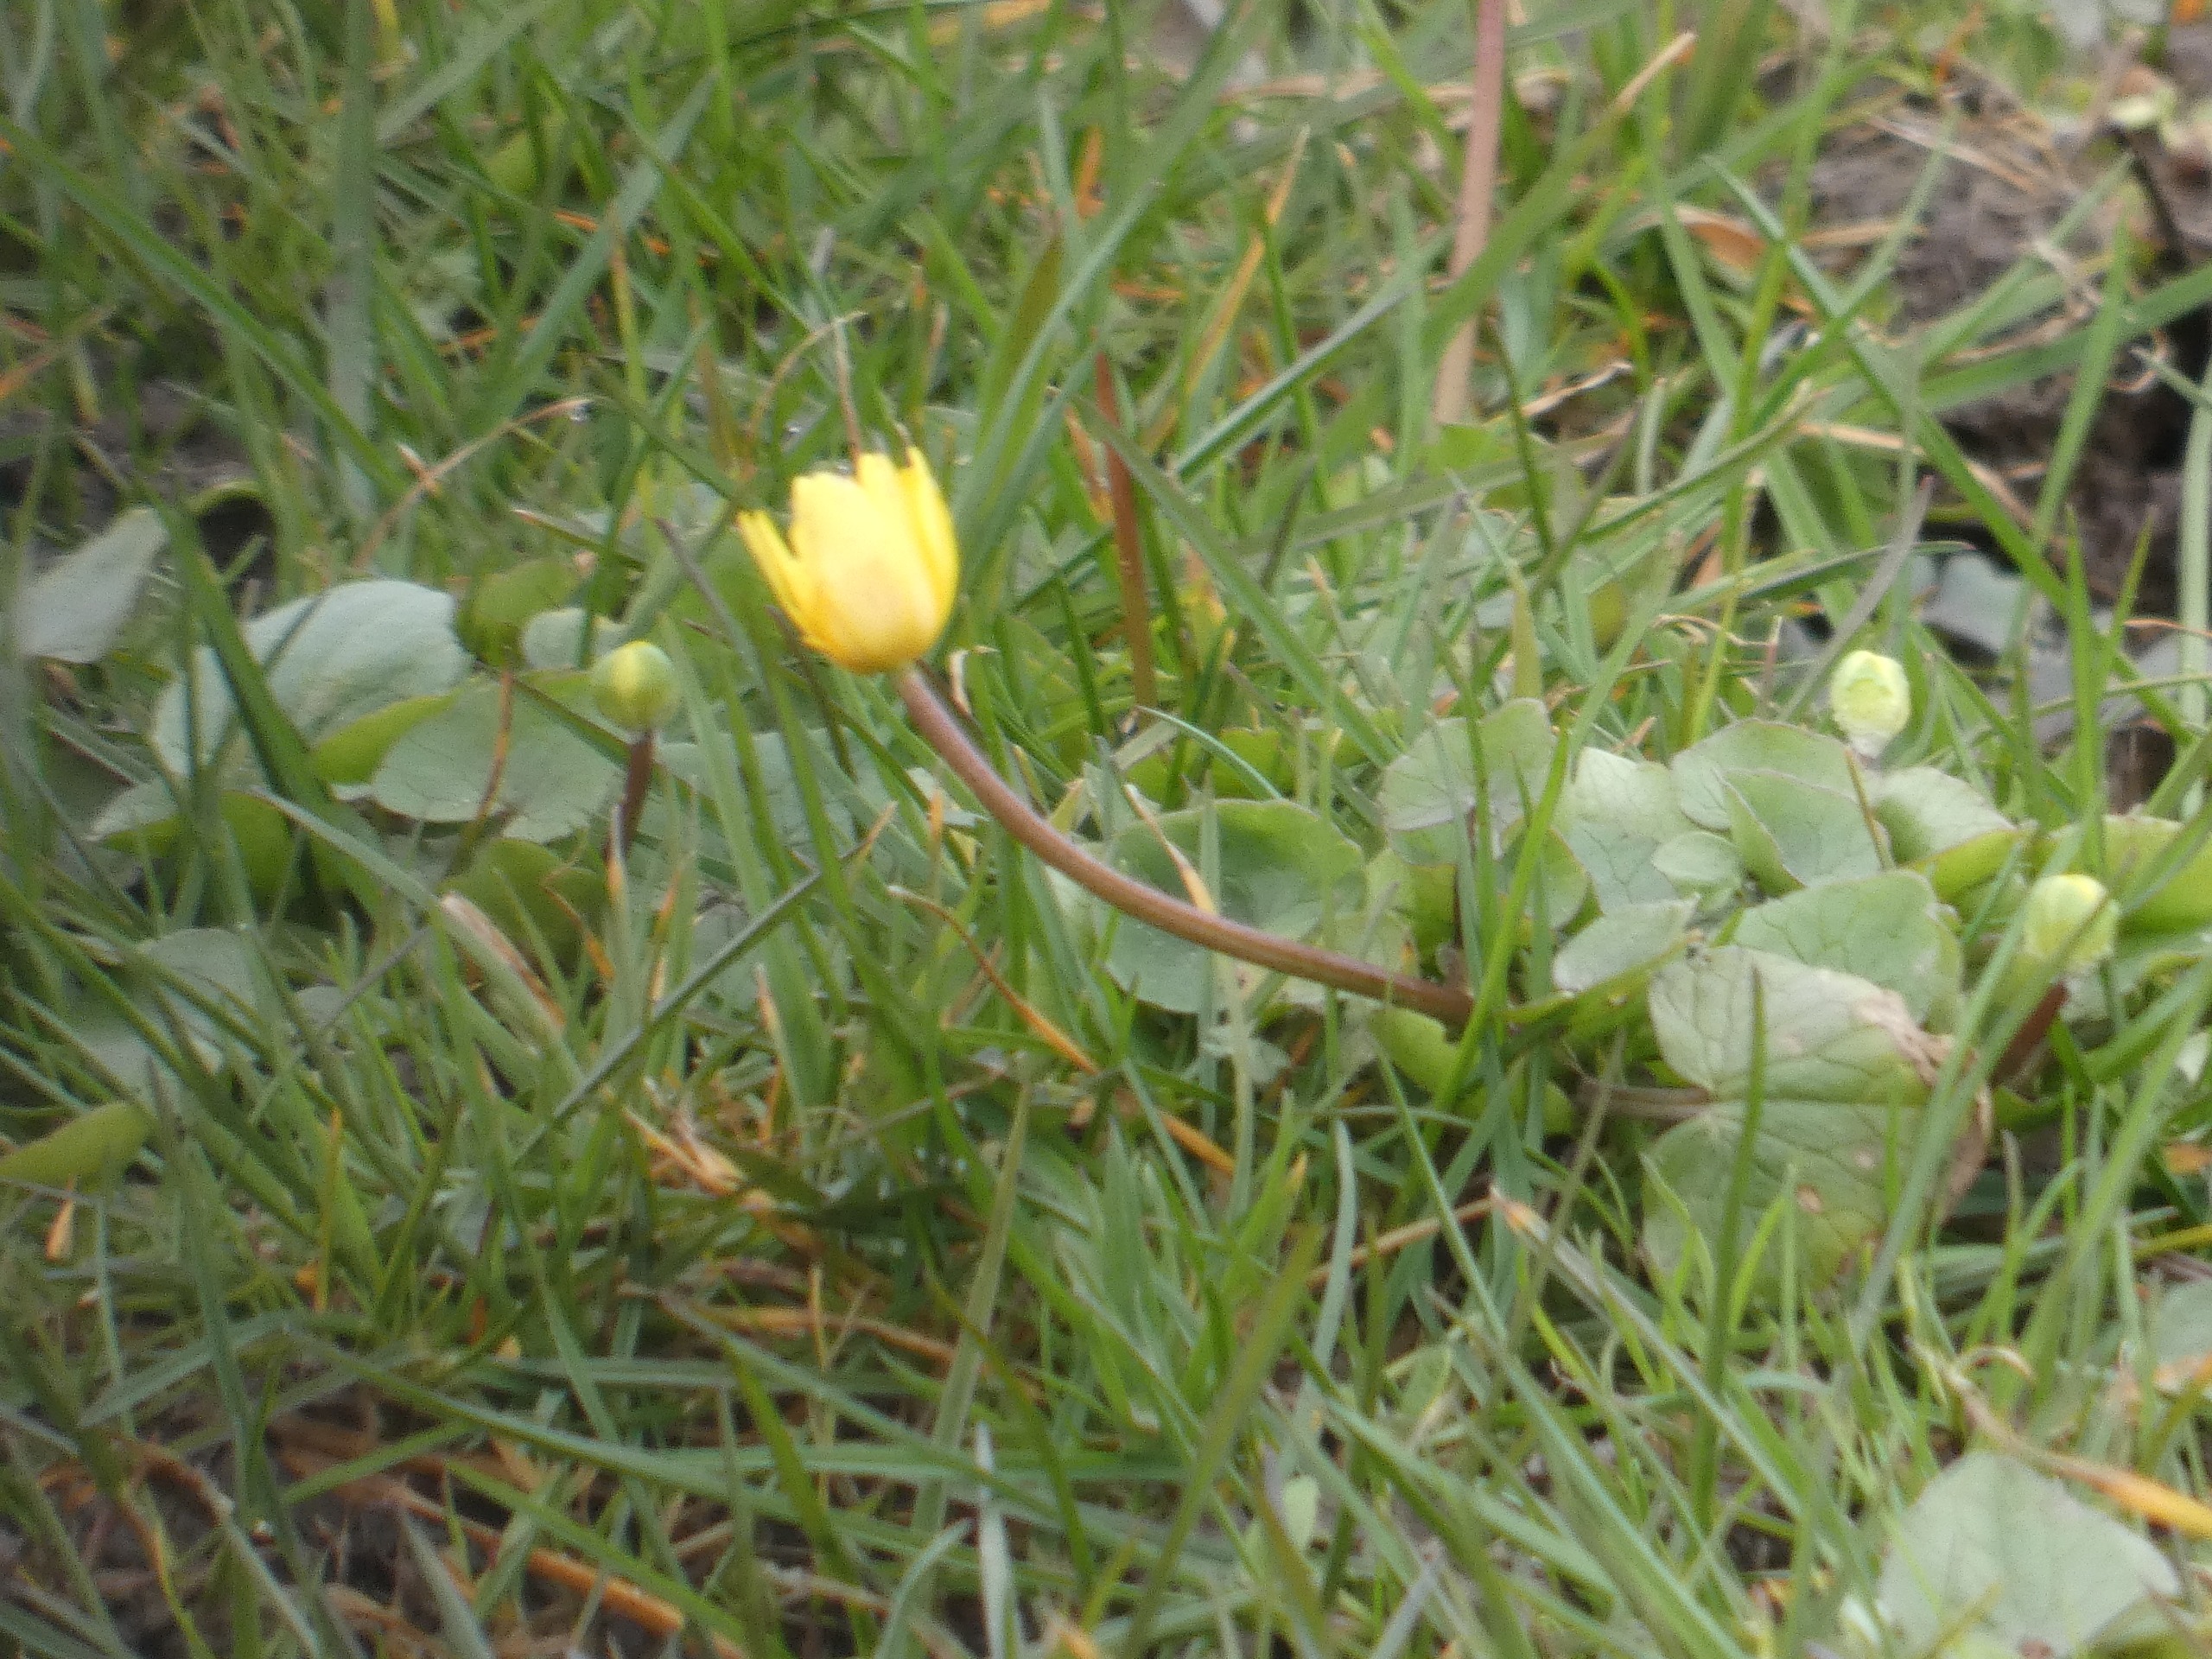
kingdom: Plantae
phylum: Tracheophyta
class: Magnoliopsida
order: Ranunculales
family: Ranunculaceae
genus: Ficaria
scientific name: Ficaria verna
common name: Vorterod
